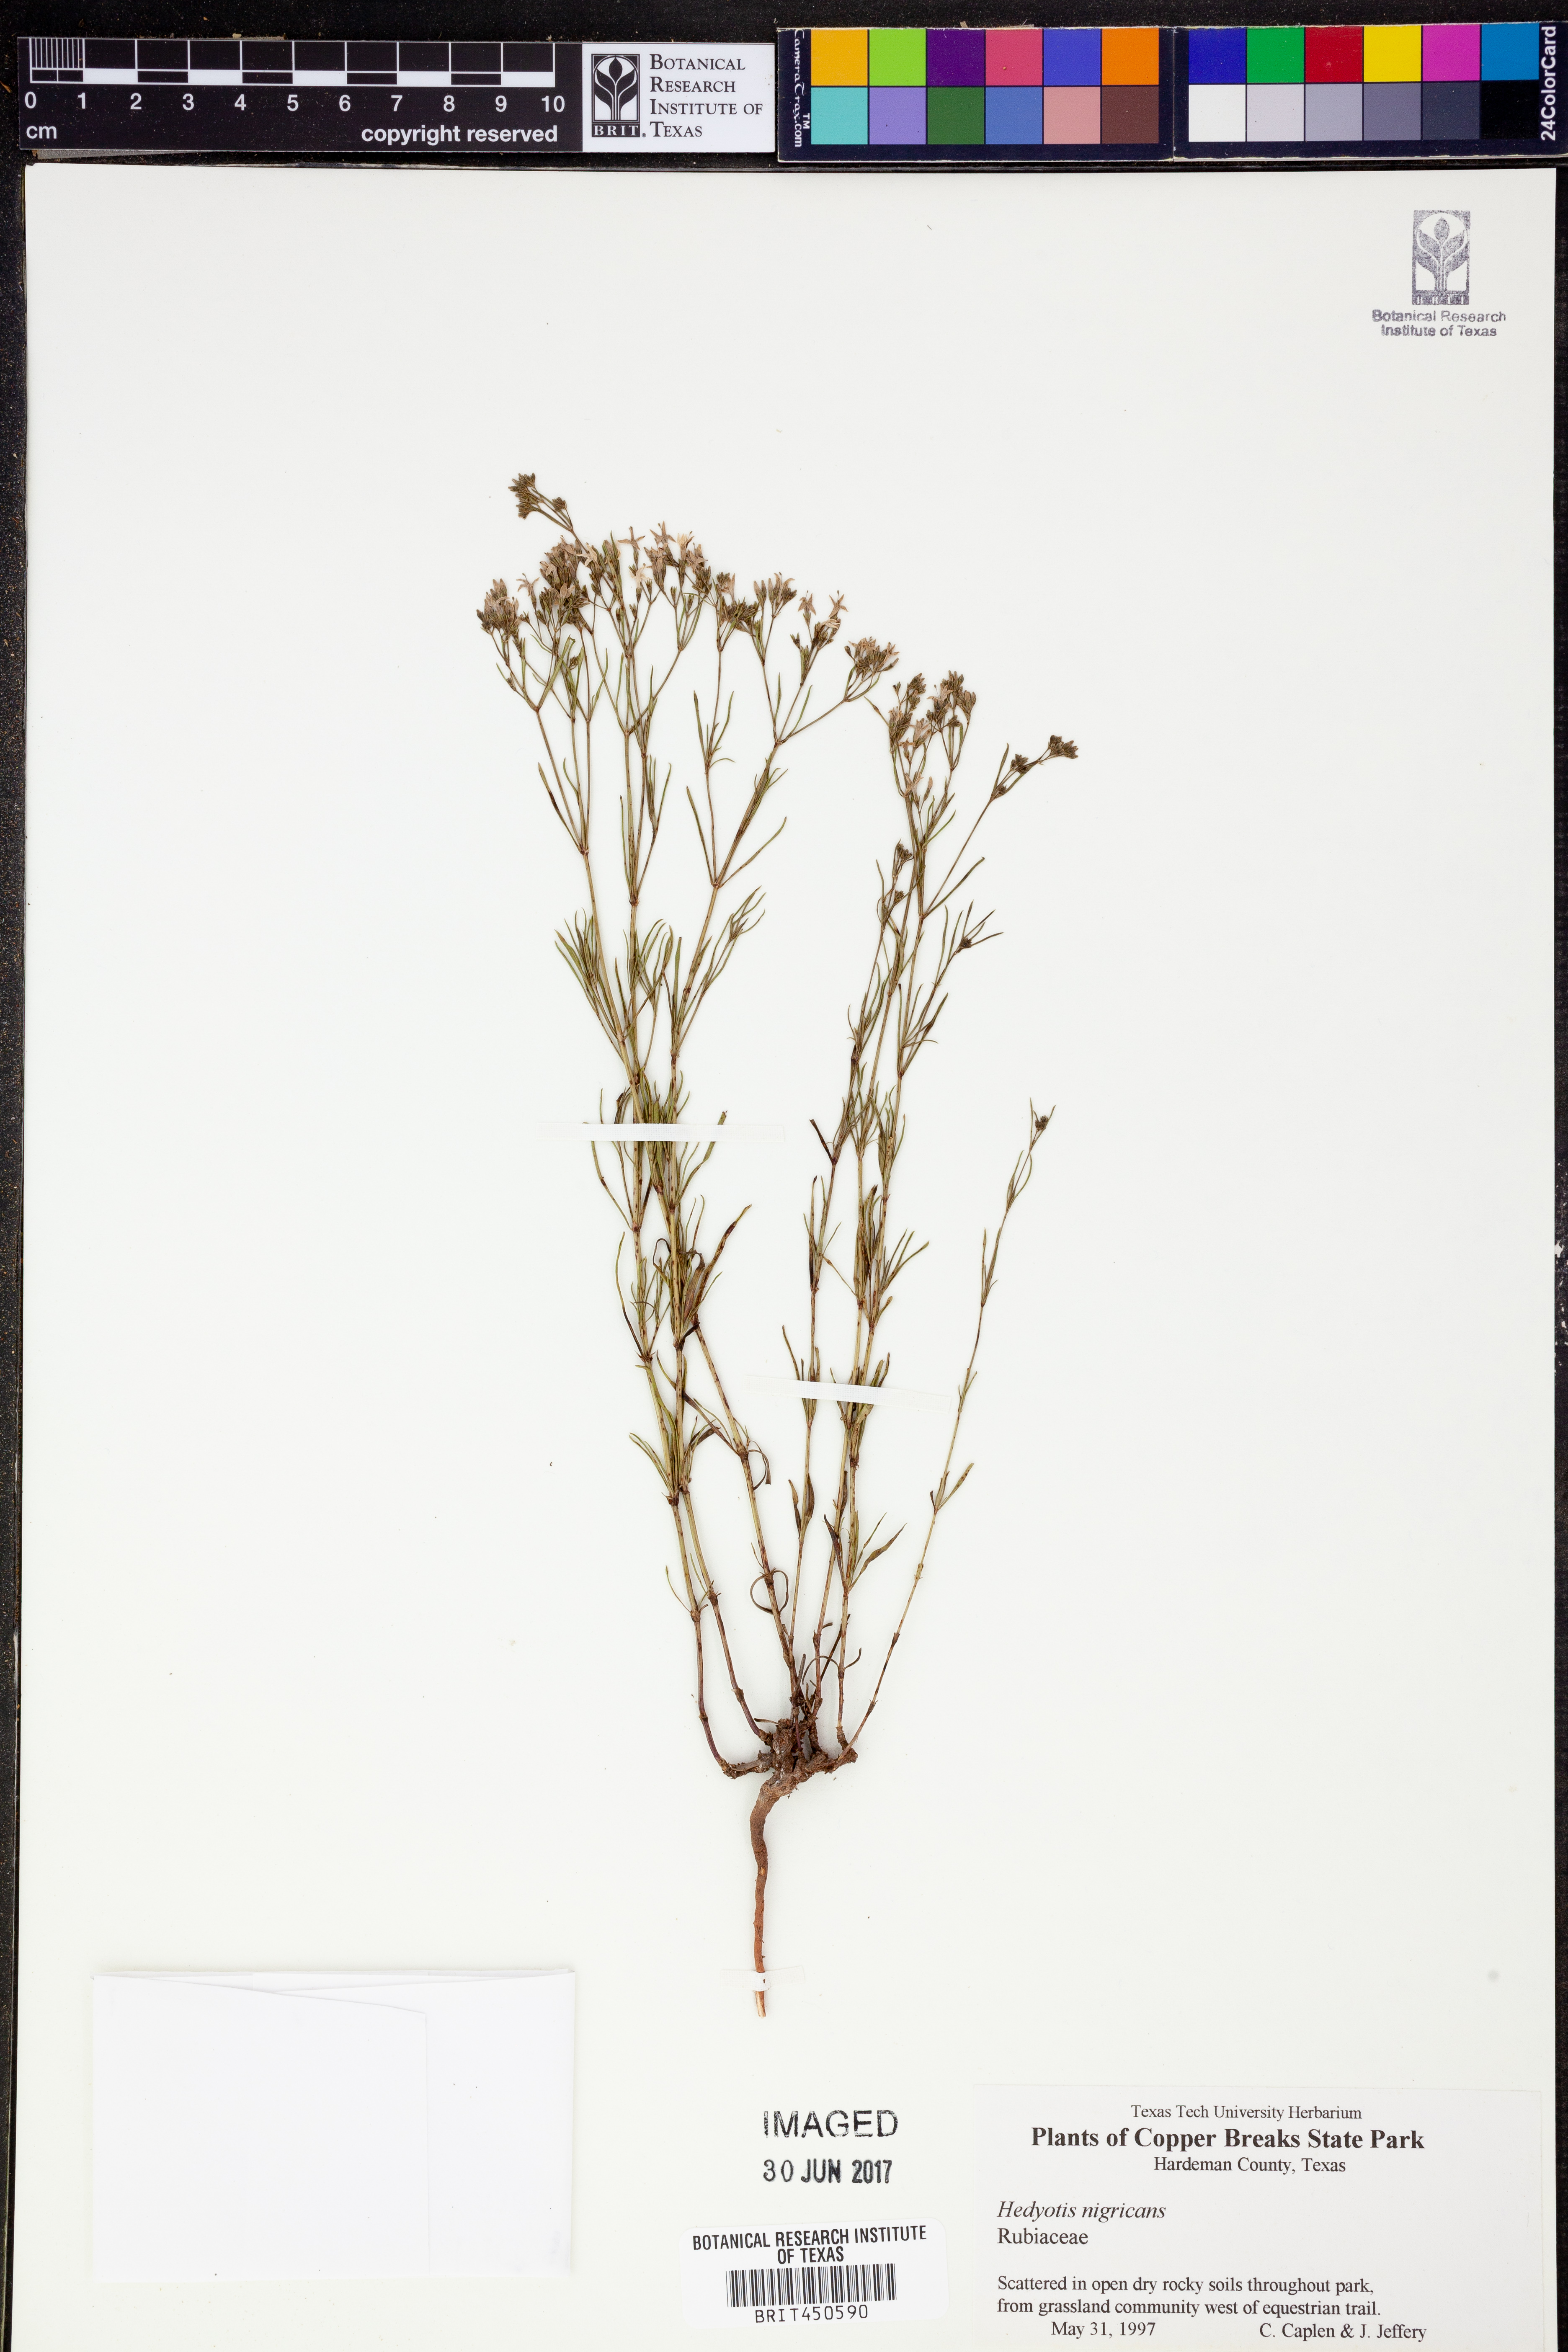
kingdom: Plantae
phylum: Tracheophyta
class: Magnoliopsida
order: Gentianales
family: Rubiaceae
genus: Stenaria
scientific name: Stenaria nigricans
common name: Diamondflowers
